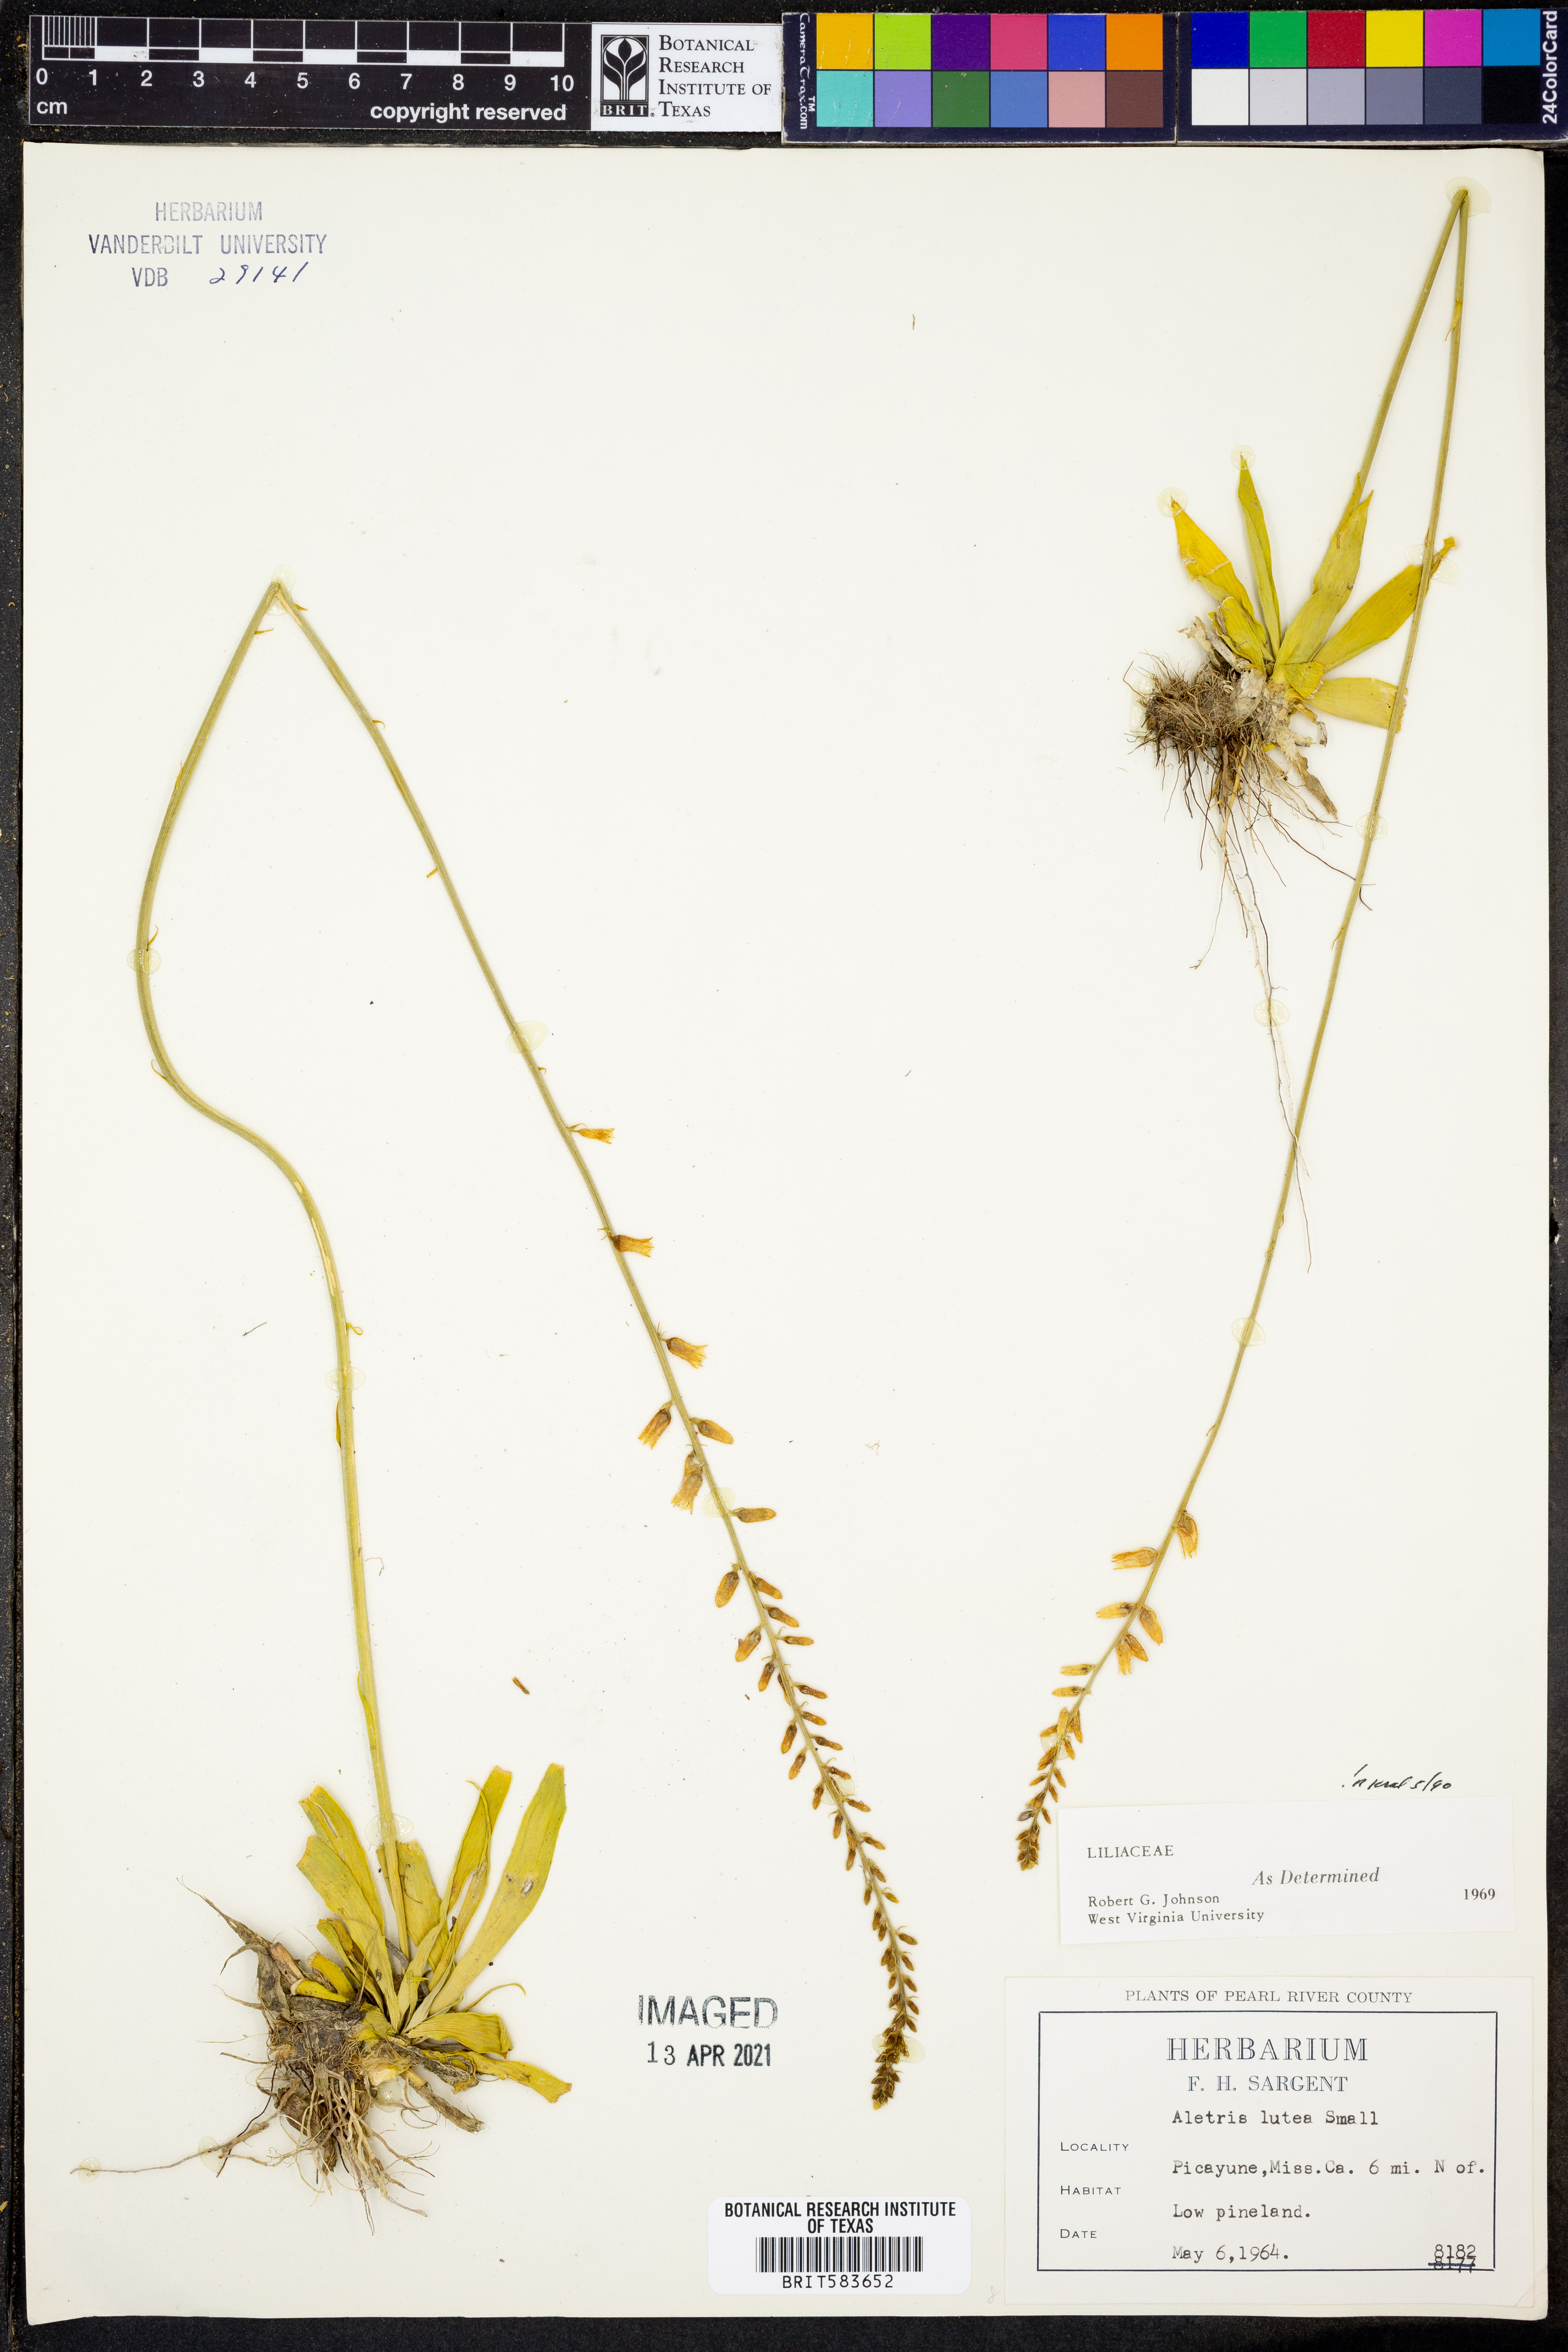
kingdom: Plantae
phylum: Tracheophyta
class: Liliopsida
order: Dioscoreales
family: Nartheciaceae
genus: Aletris
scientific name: Aletris lutea
